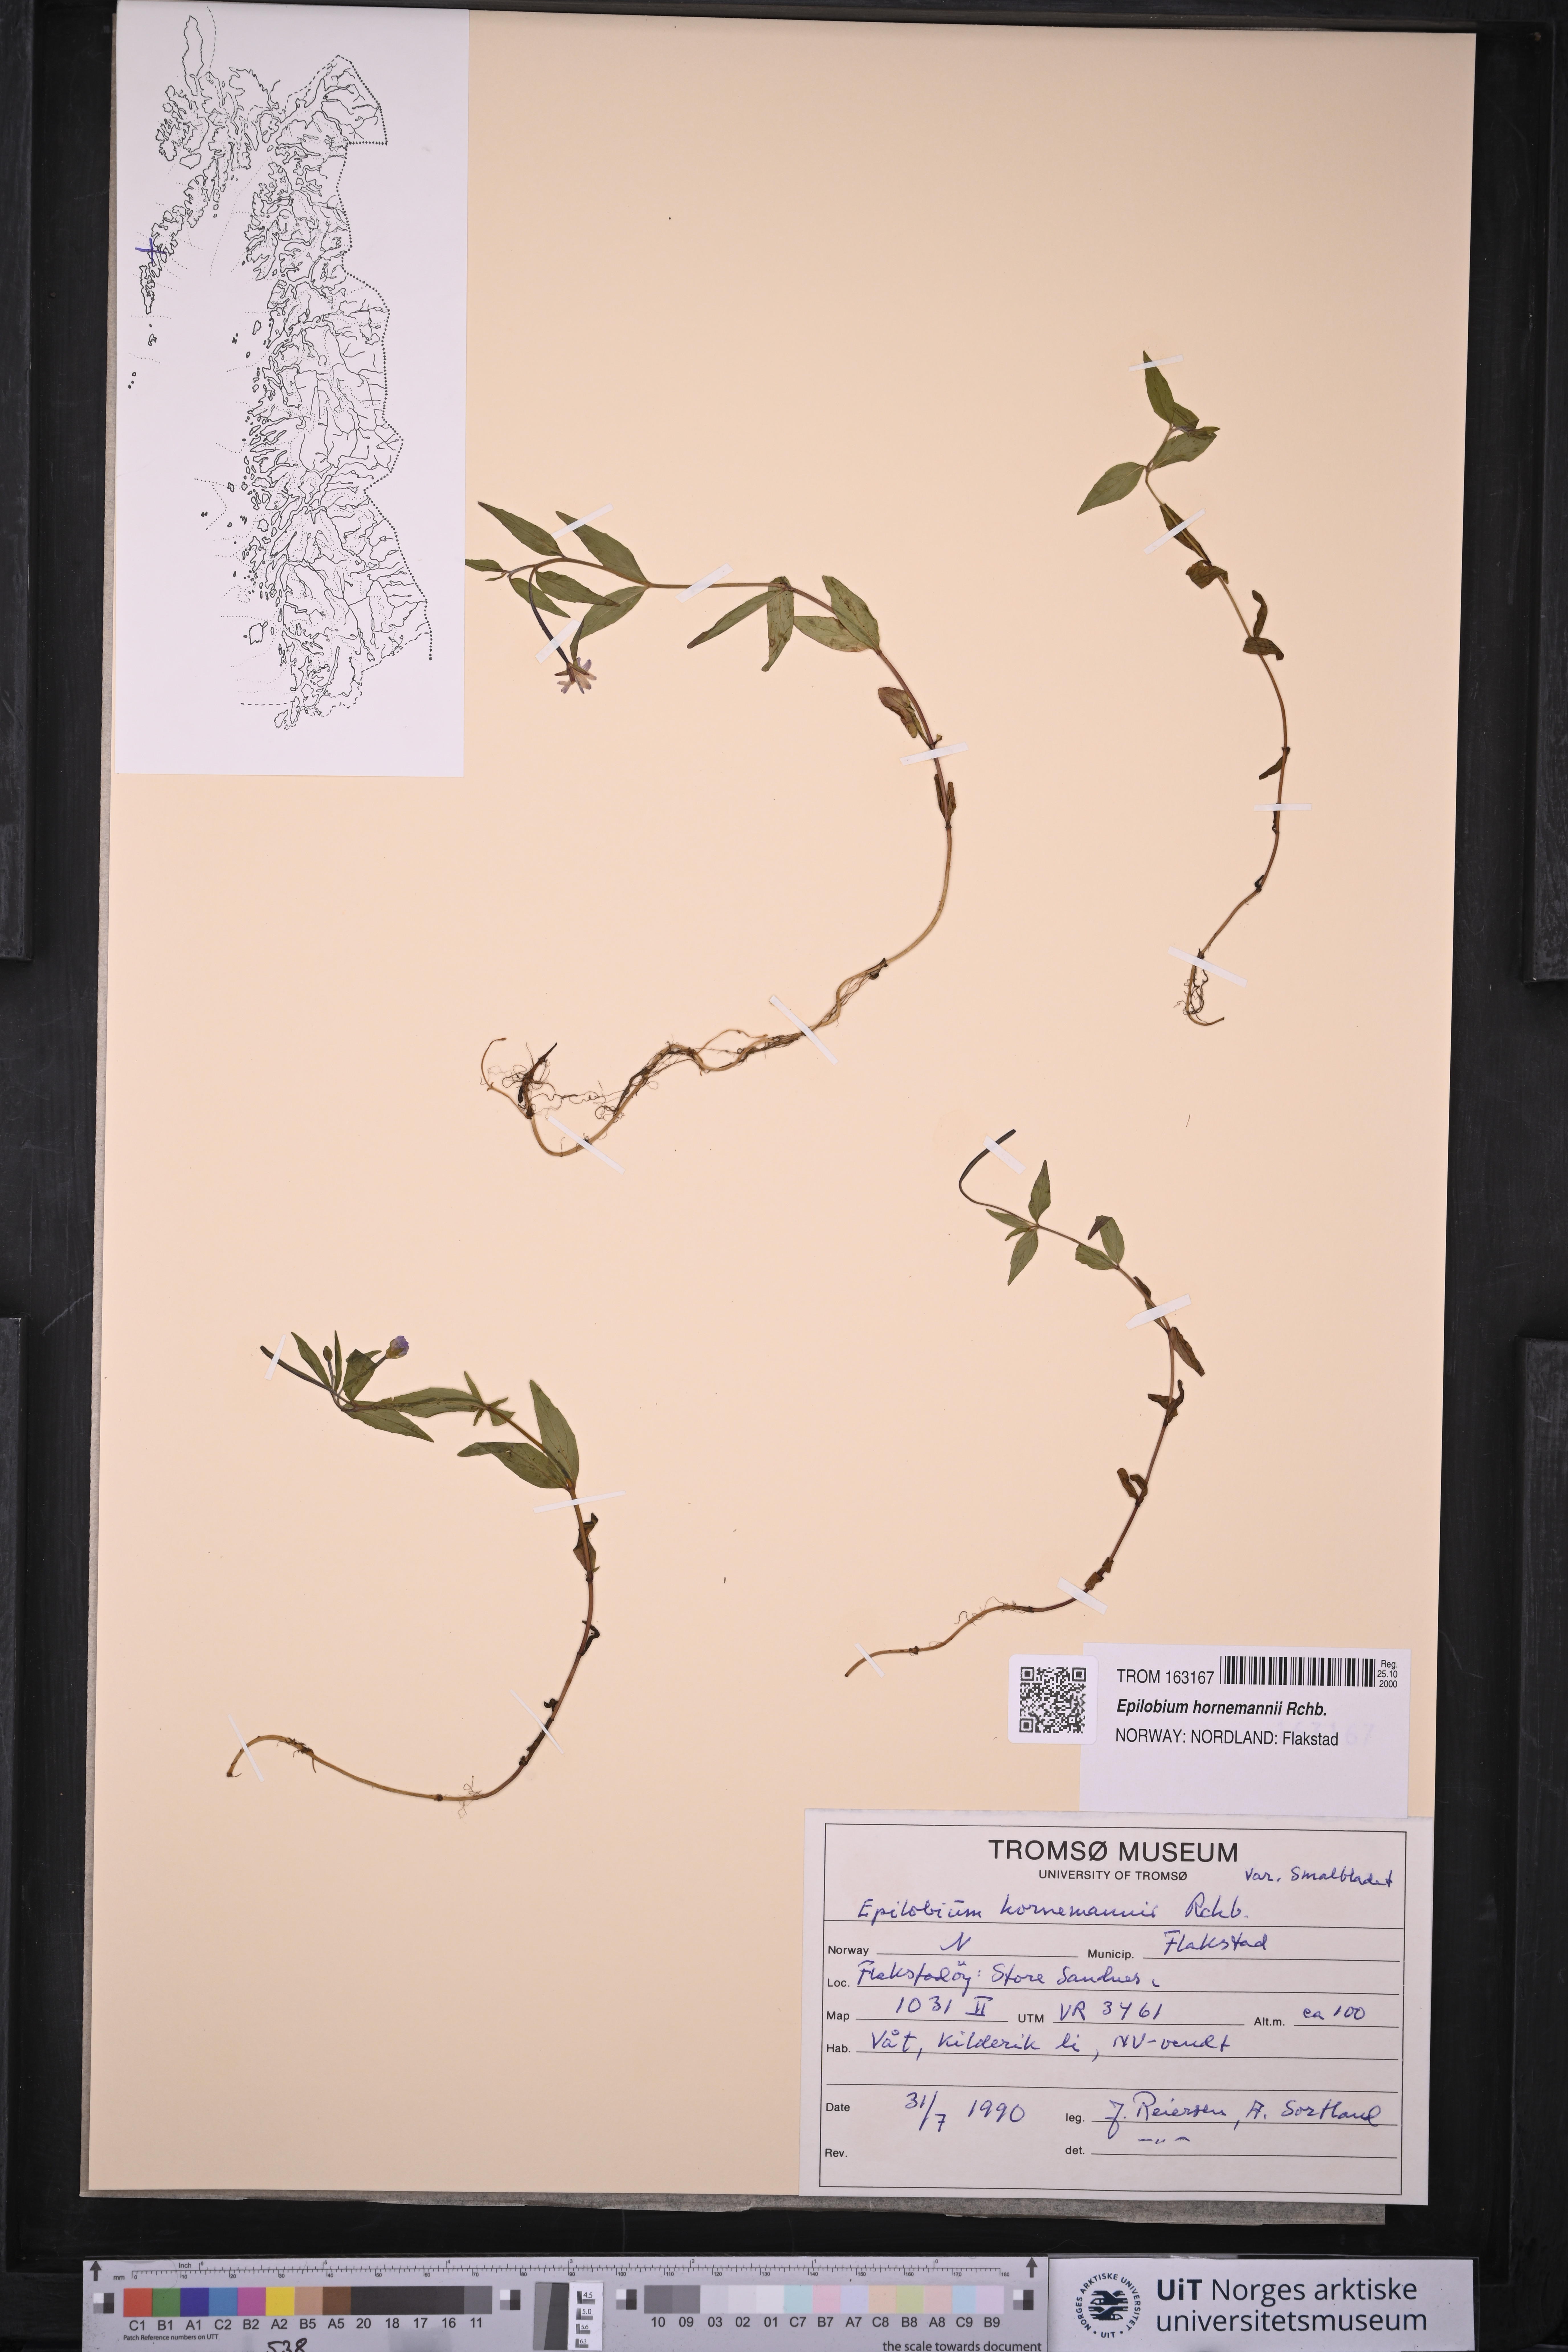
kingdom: Plantae
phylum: Tracheophyta
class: Magnoliopsida
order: Myrtales
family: Onagraceae
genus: Epilobium
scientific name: Epilobium hornemannii
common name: Hornemann's willowherb
